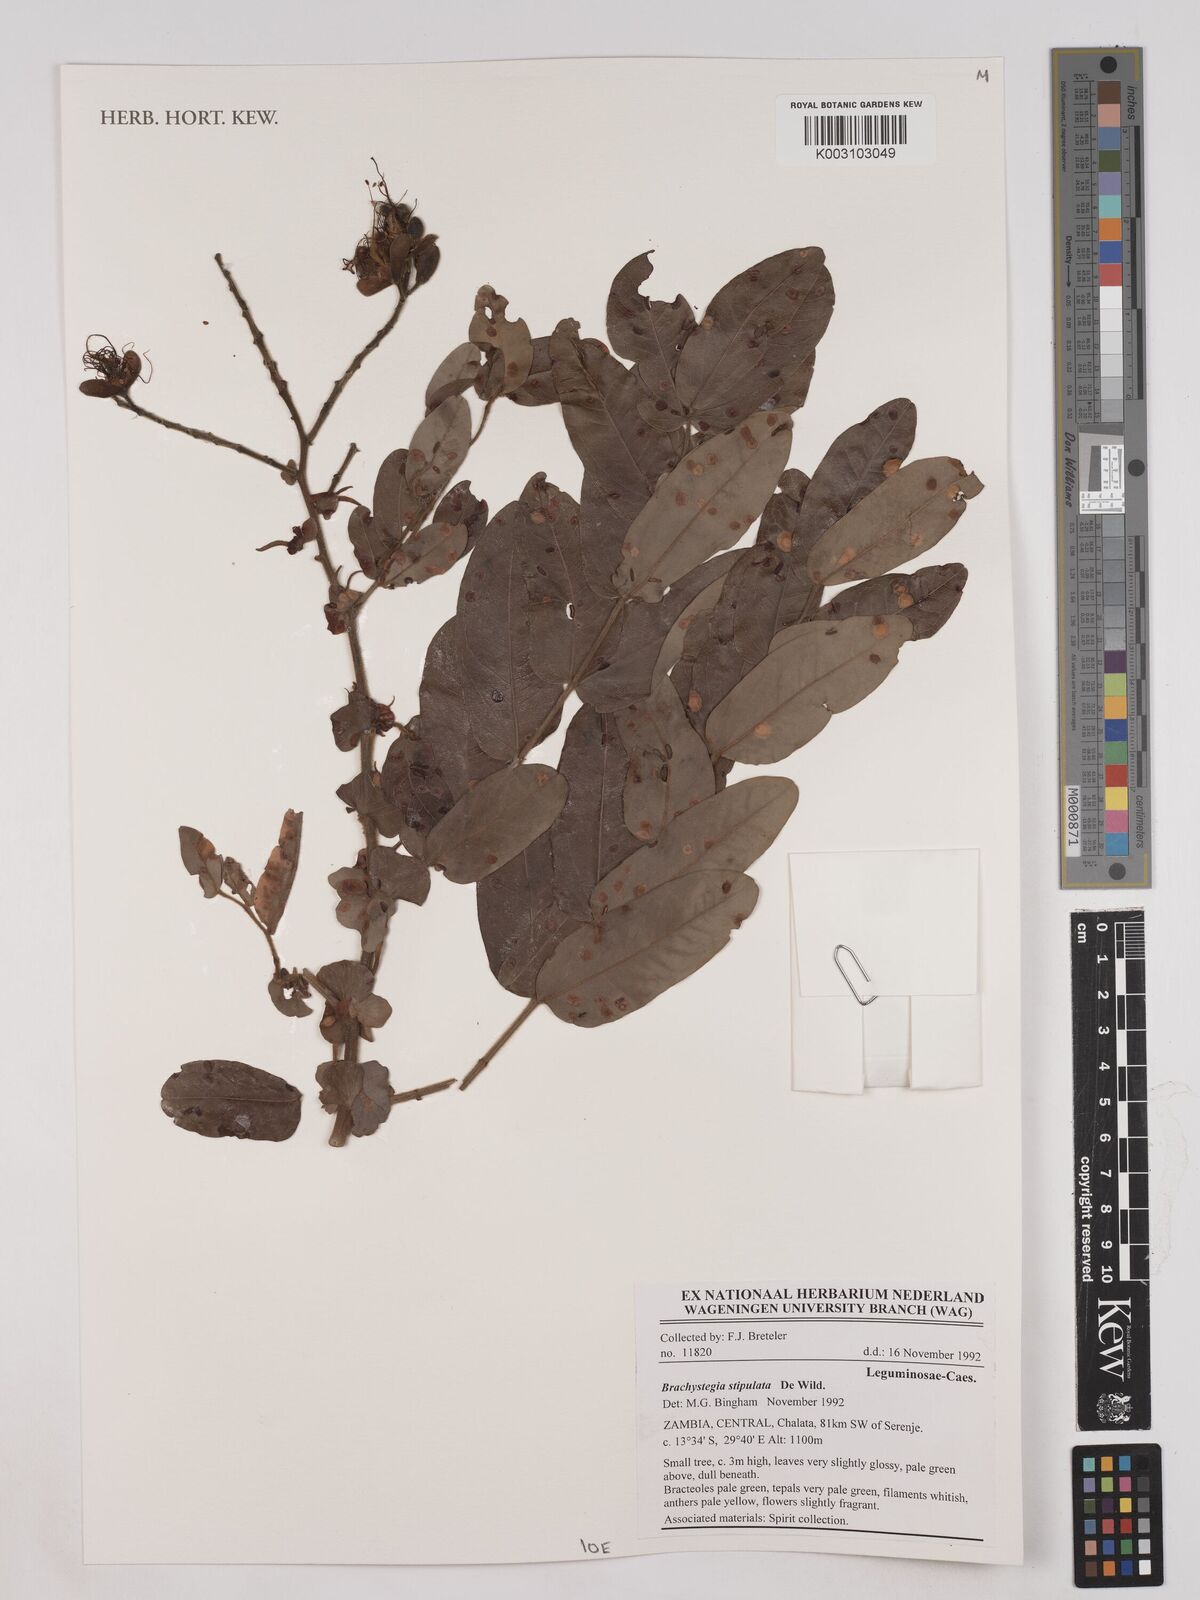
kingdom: Plantae
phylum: Tracheophyta
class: Magnoliopsida
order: Fabales
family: Fabaceae
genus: Brachystegia
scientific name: Brachystegia stipulata
